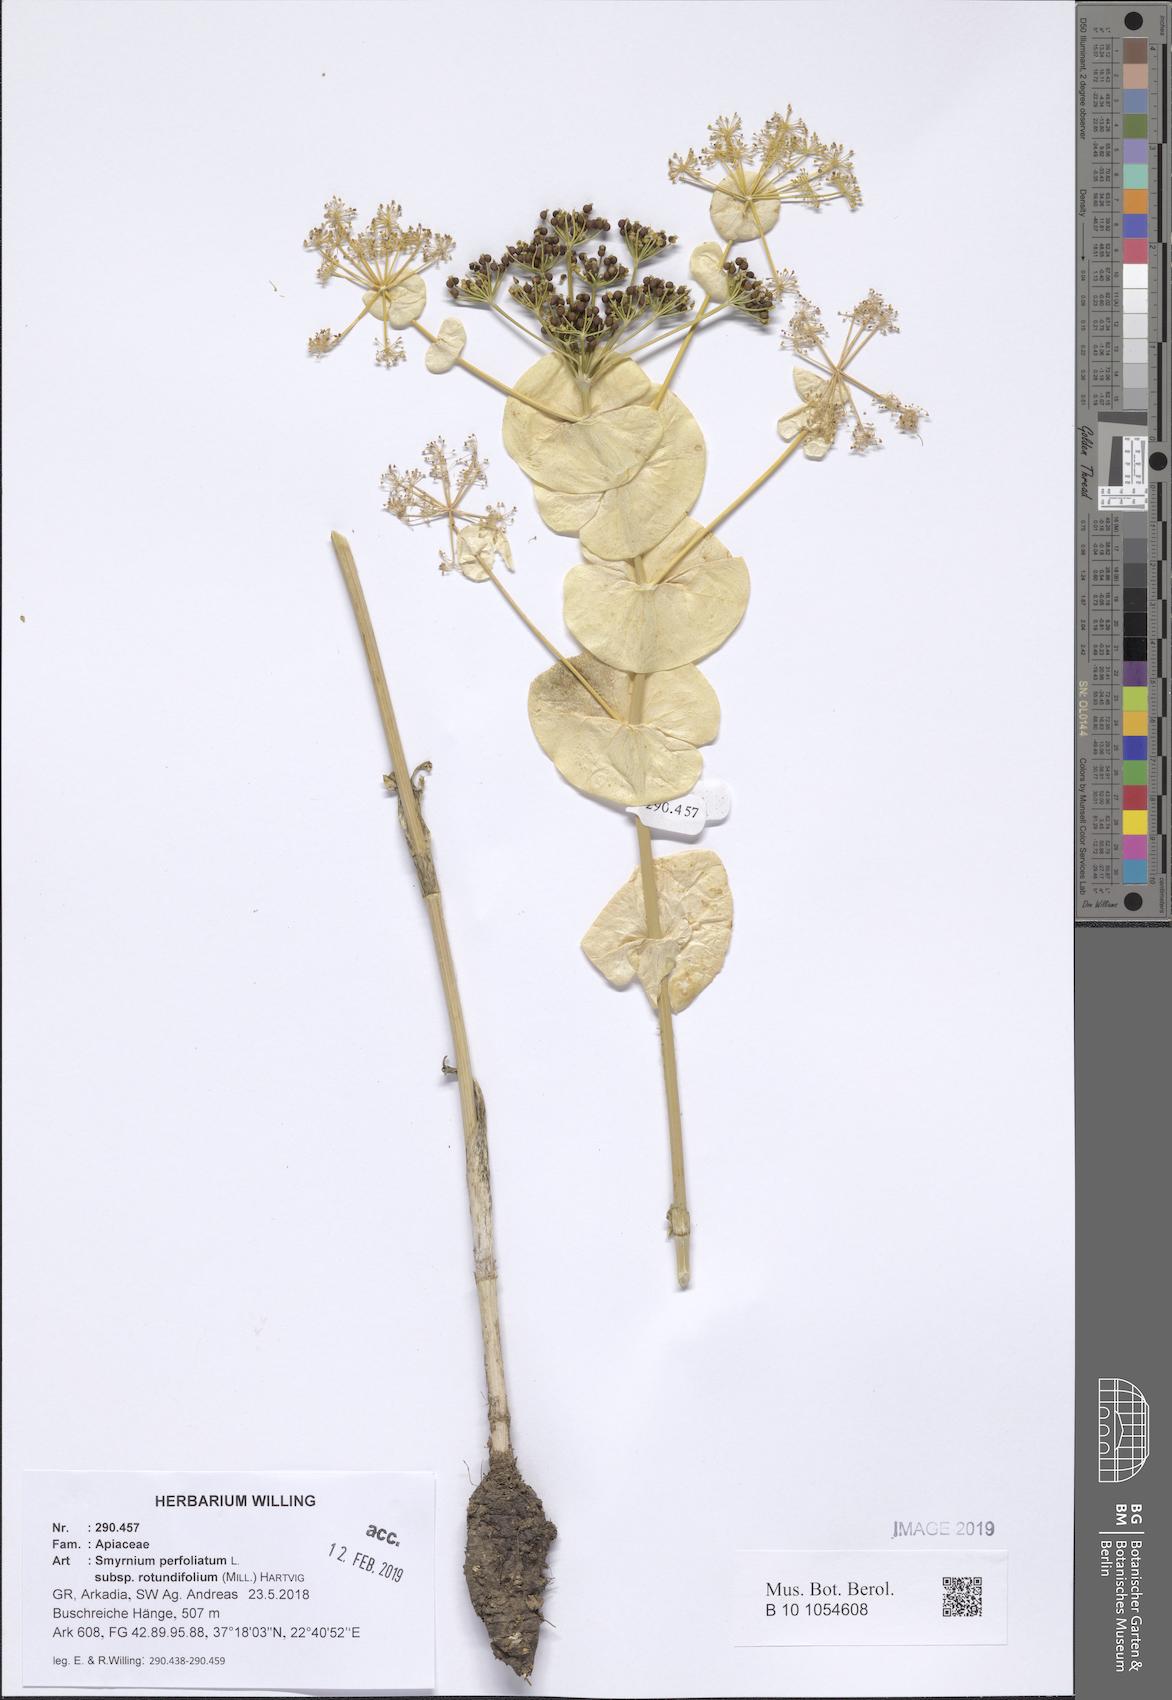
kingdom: Plantae
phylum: Tracheophyta
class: Magnoliopsida
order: Apiales
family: Apiaceae
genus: Smyrnium
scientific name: Smyrnium perfoliatum
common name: Perfoliate alexanders
